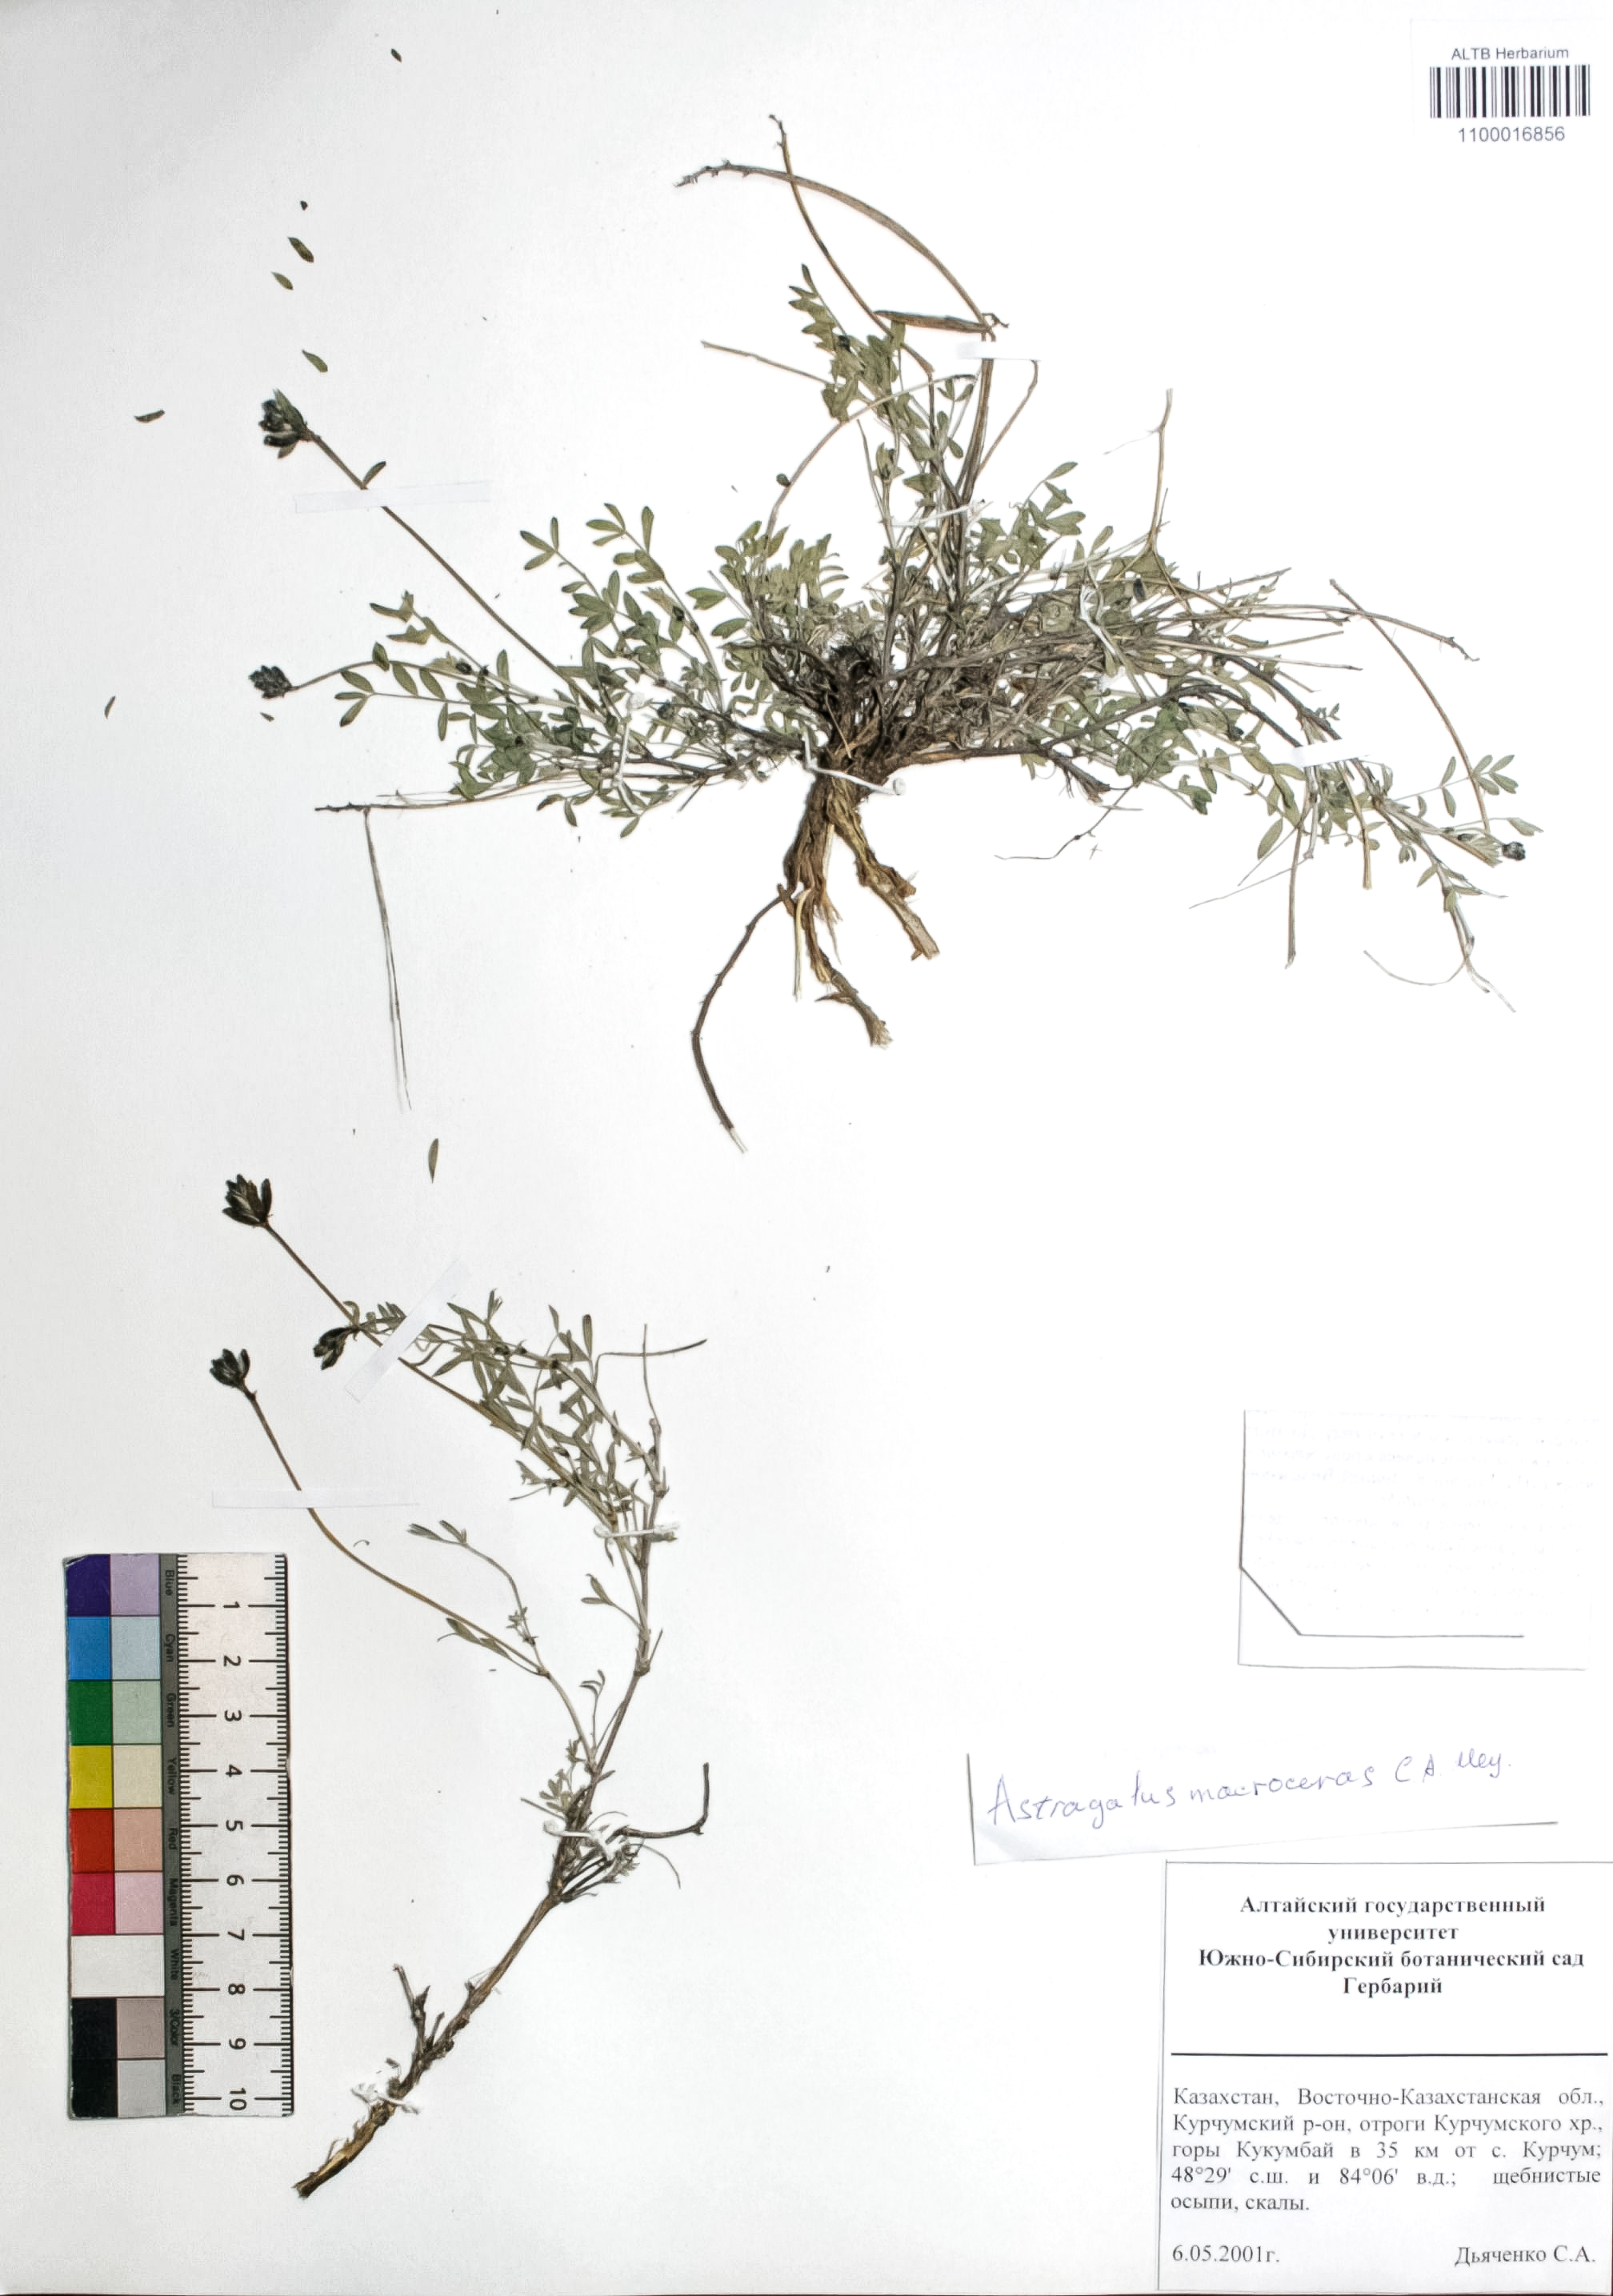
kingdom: Plantae
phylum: Tracheophyta
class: Magnoliopsida
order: Fabales
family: Fabaceae
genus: Astragalus
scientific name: Astragalus macroceras
